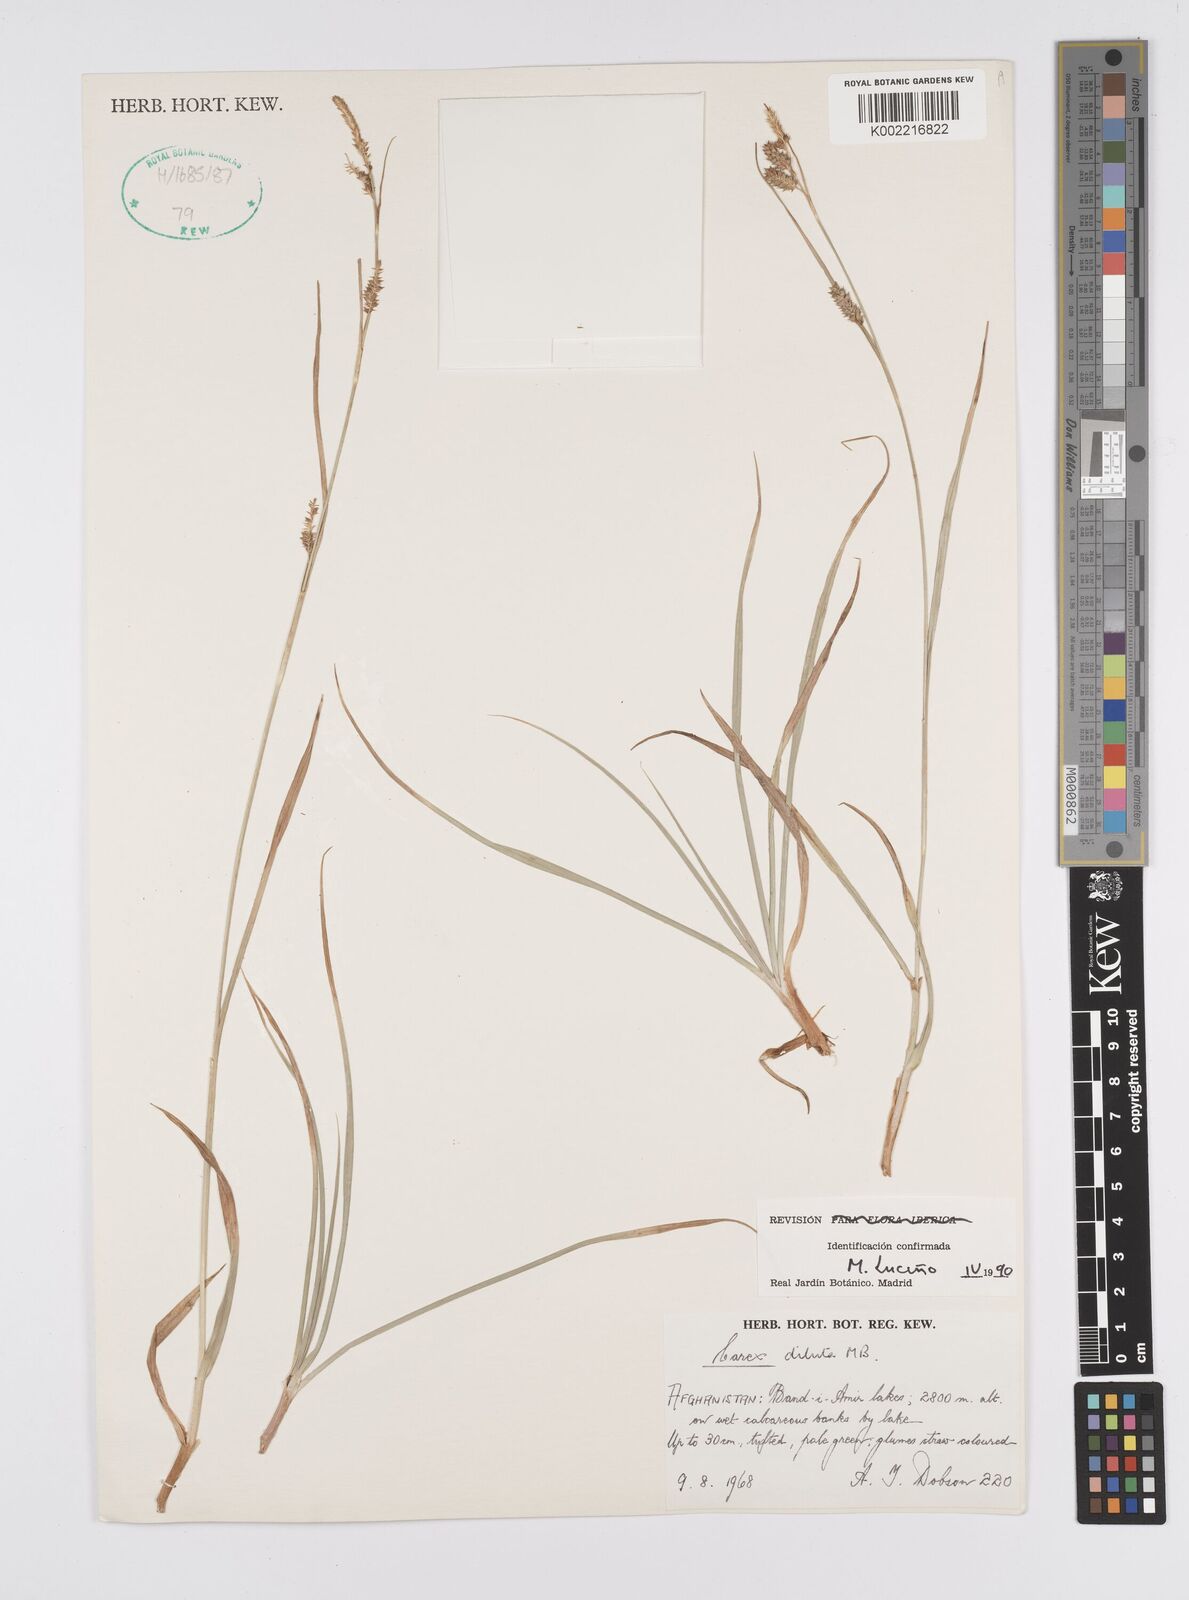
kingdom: Plantae
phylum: Tracheophyta
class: Liliopsida
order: Poales
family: Cyperaceae
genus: Carex
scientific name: Carex diluta
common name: Sedge
